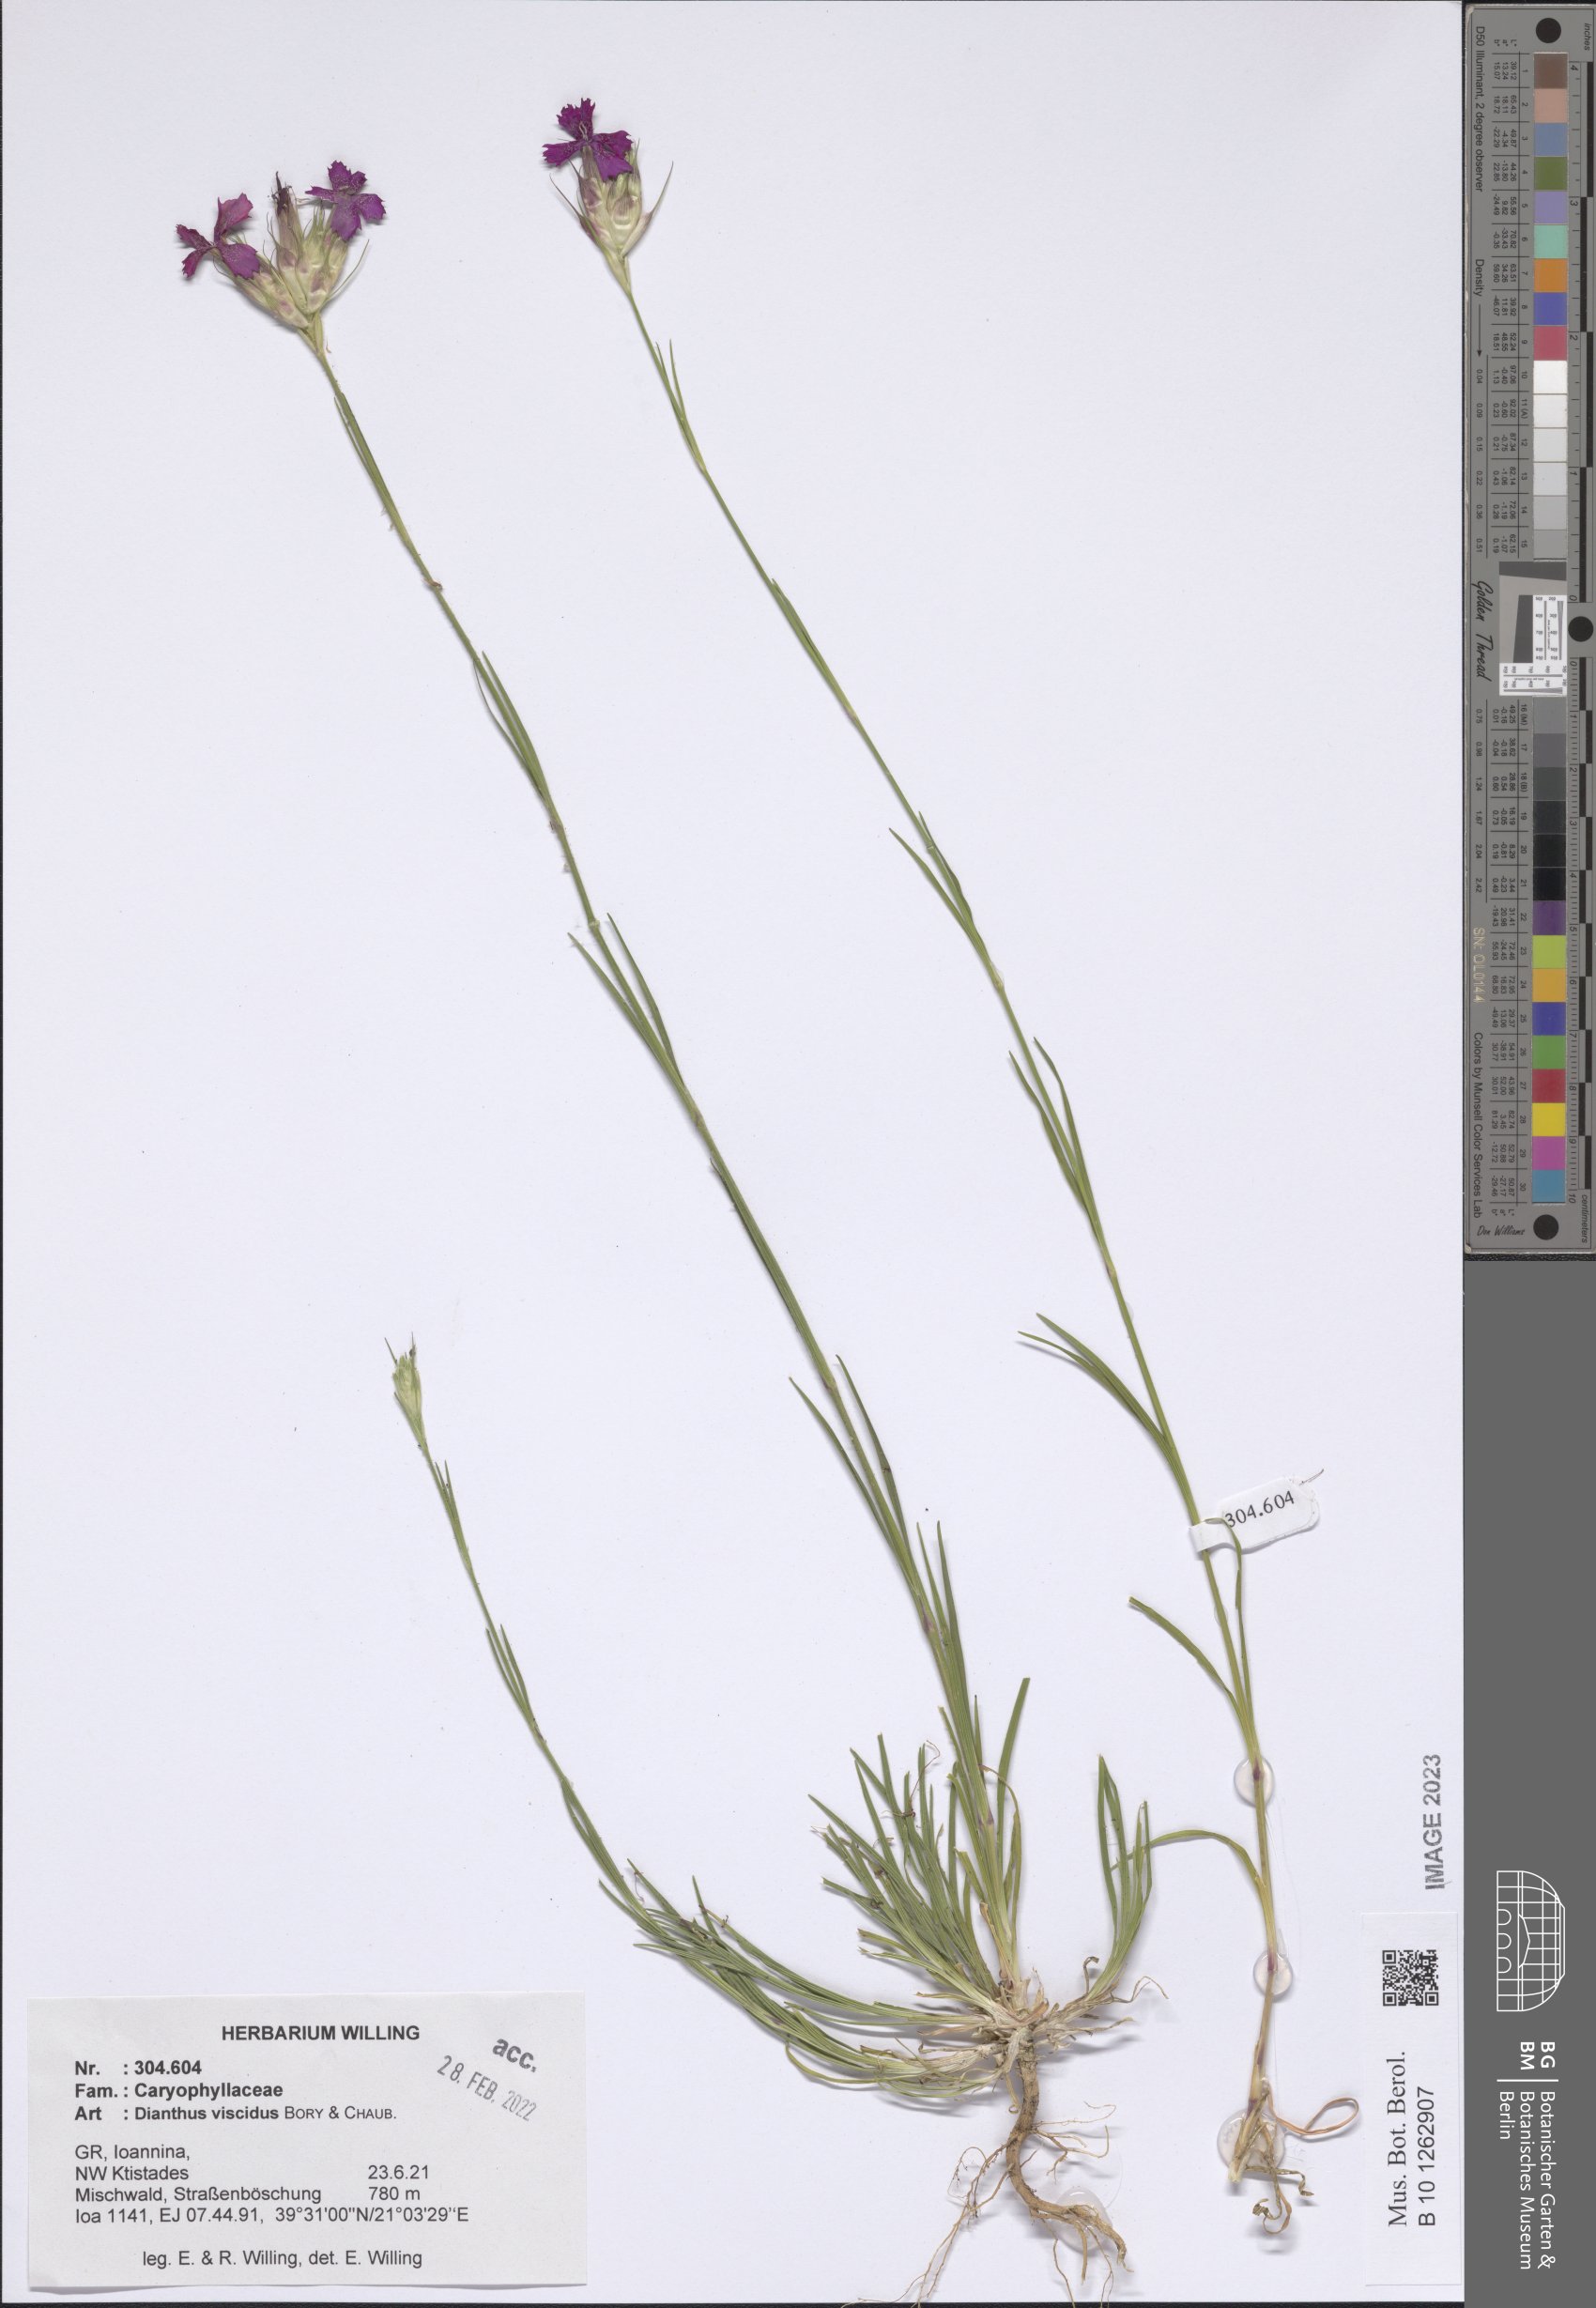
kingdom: Plantae
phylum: Tracheophyta
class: Magnoliopsida
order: Caryophyllales
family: Caryophyllaceae
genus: Dianthus
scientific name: Dianthus viscidus
